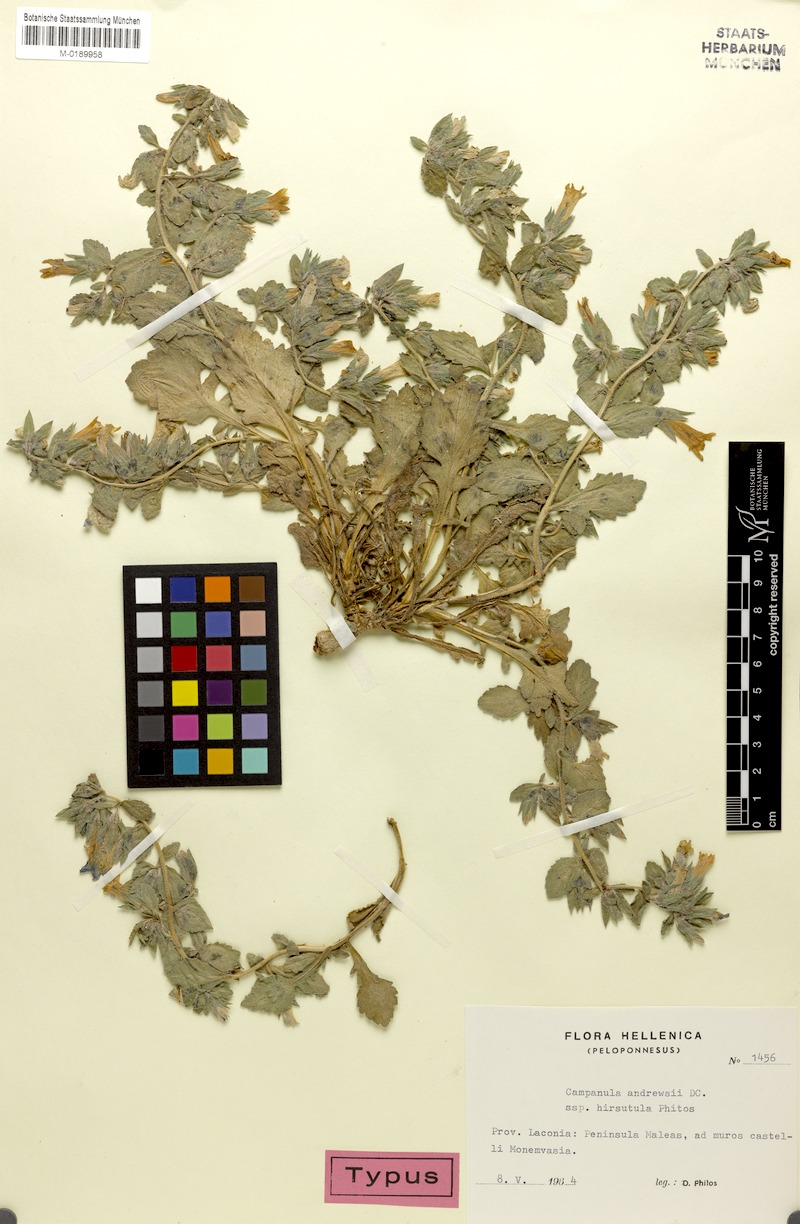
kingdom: Plantae
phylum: Tracheophyta
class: Magnoliopsida
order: Asterales
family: Campanulaceae
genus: Campanula
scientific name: Campanula andrewsii
